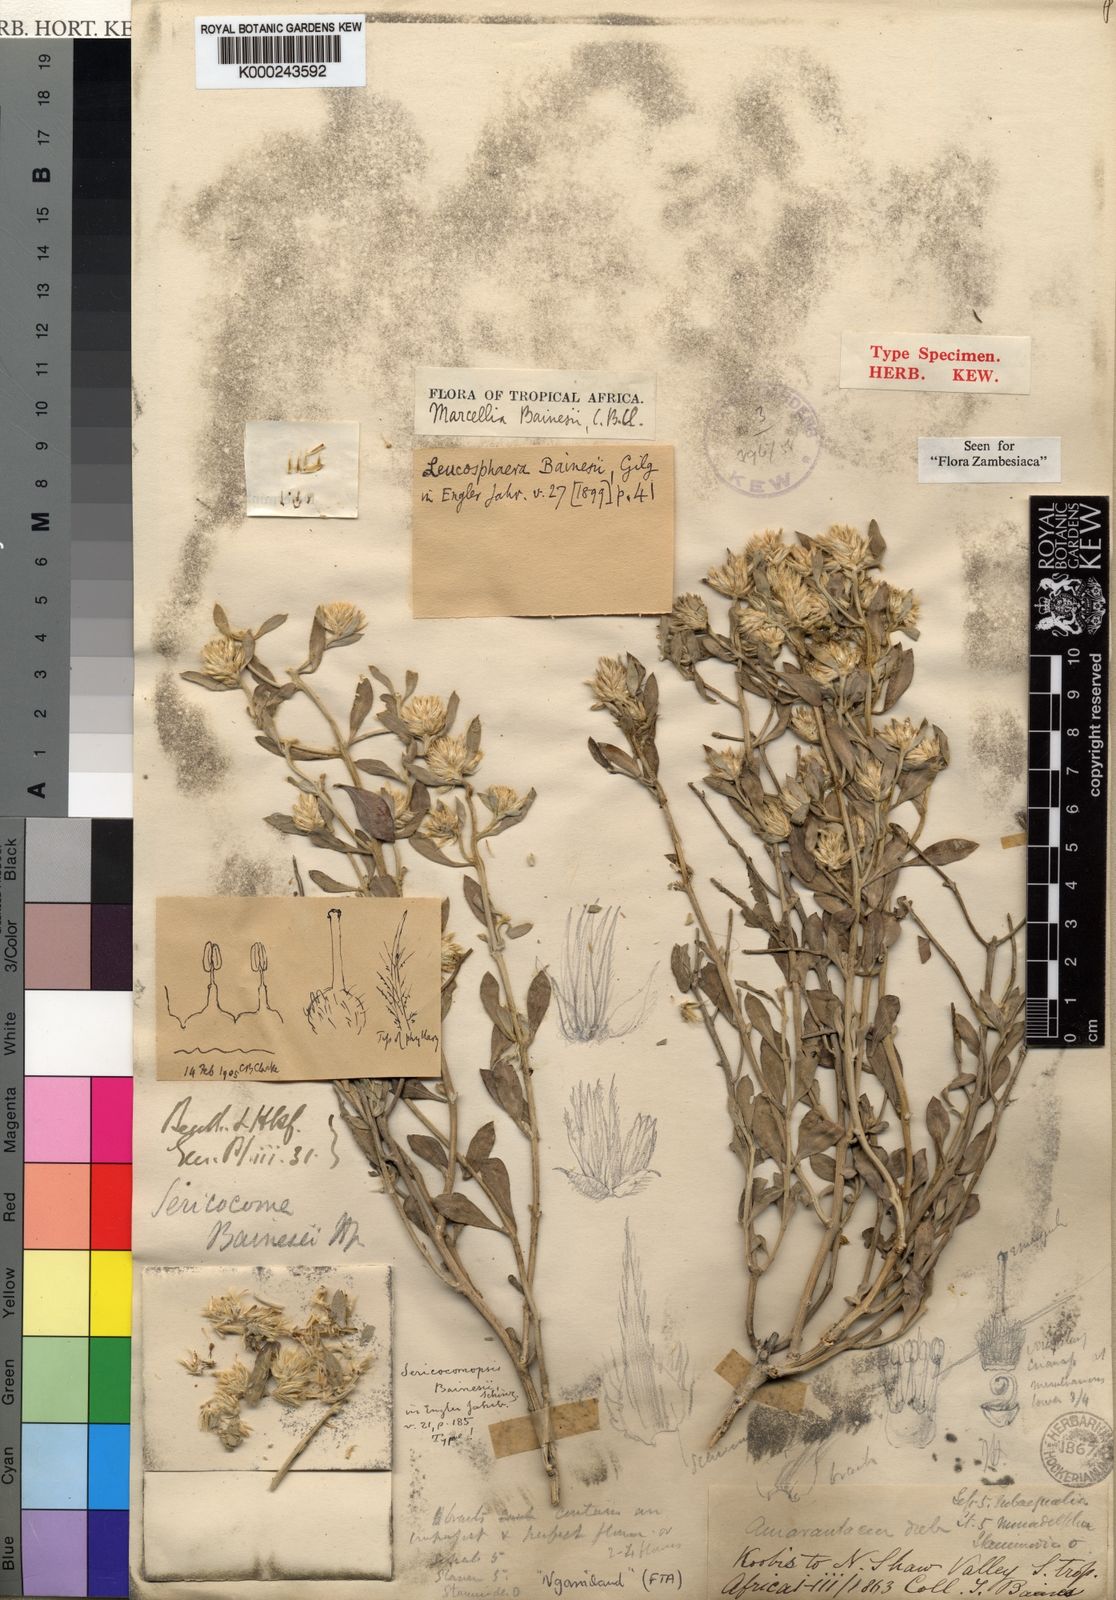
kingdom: Plantae
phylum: Tracheophyta
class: Magnoliopsida
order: Caryophyllales
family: Amaranthaceae
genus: Leucosphaera
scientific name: Leucosphaera bainesii
